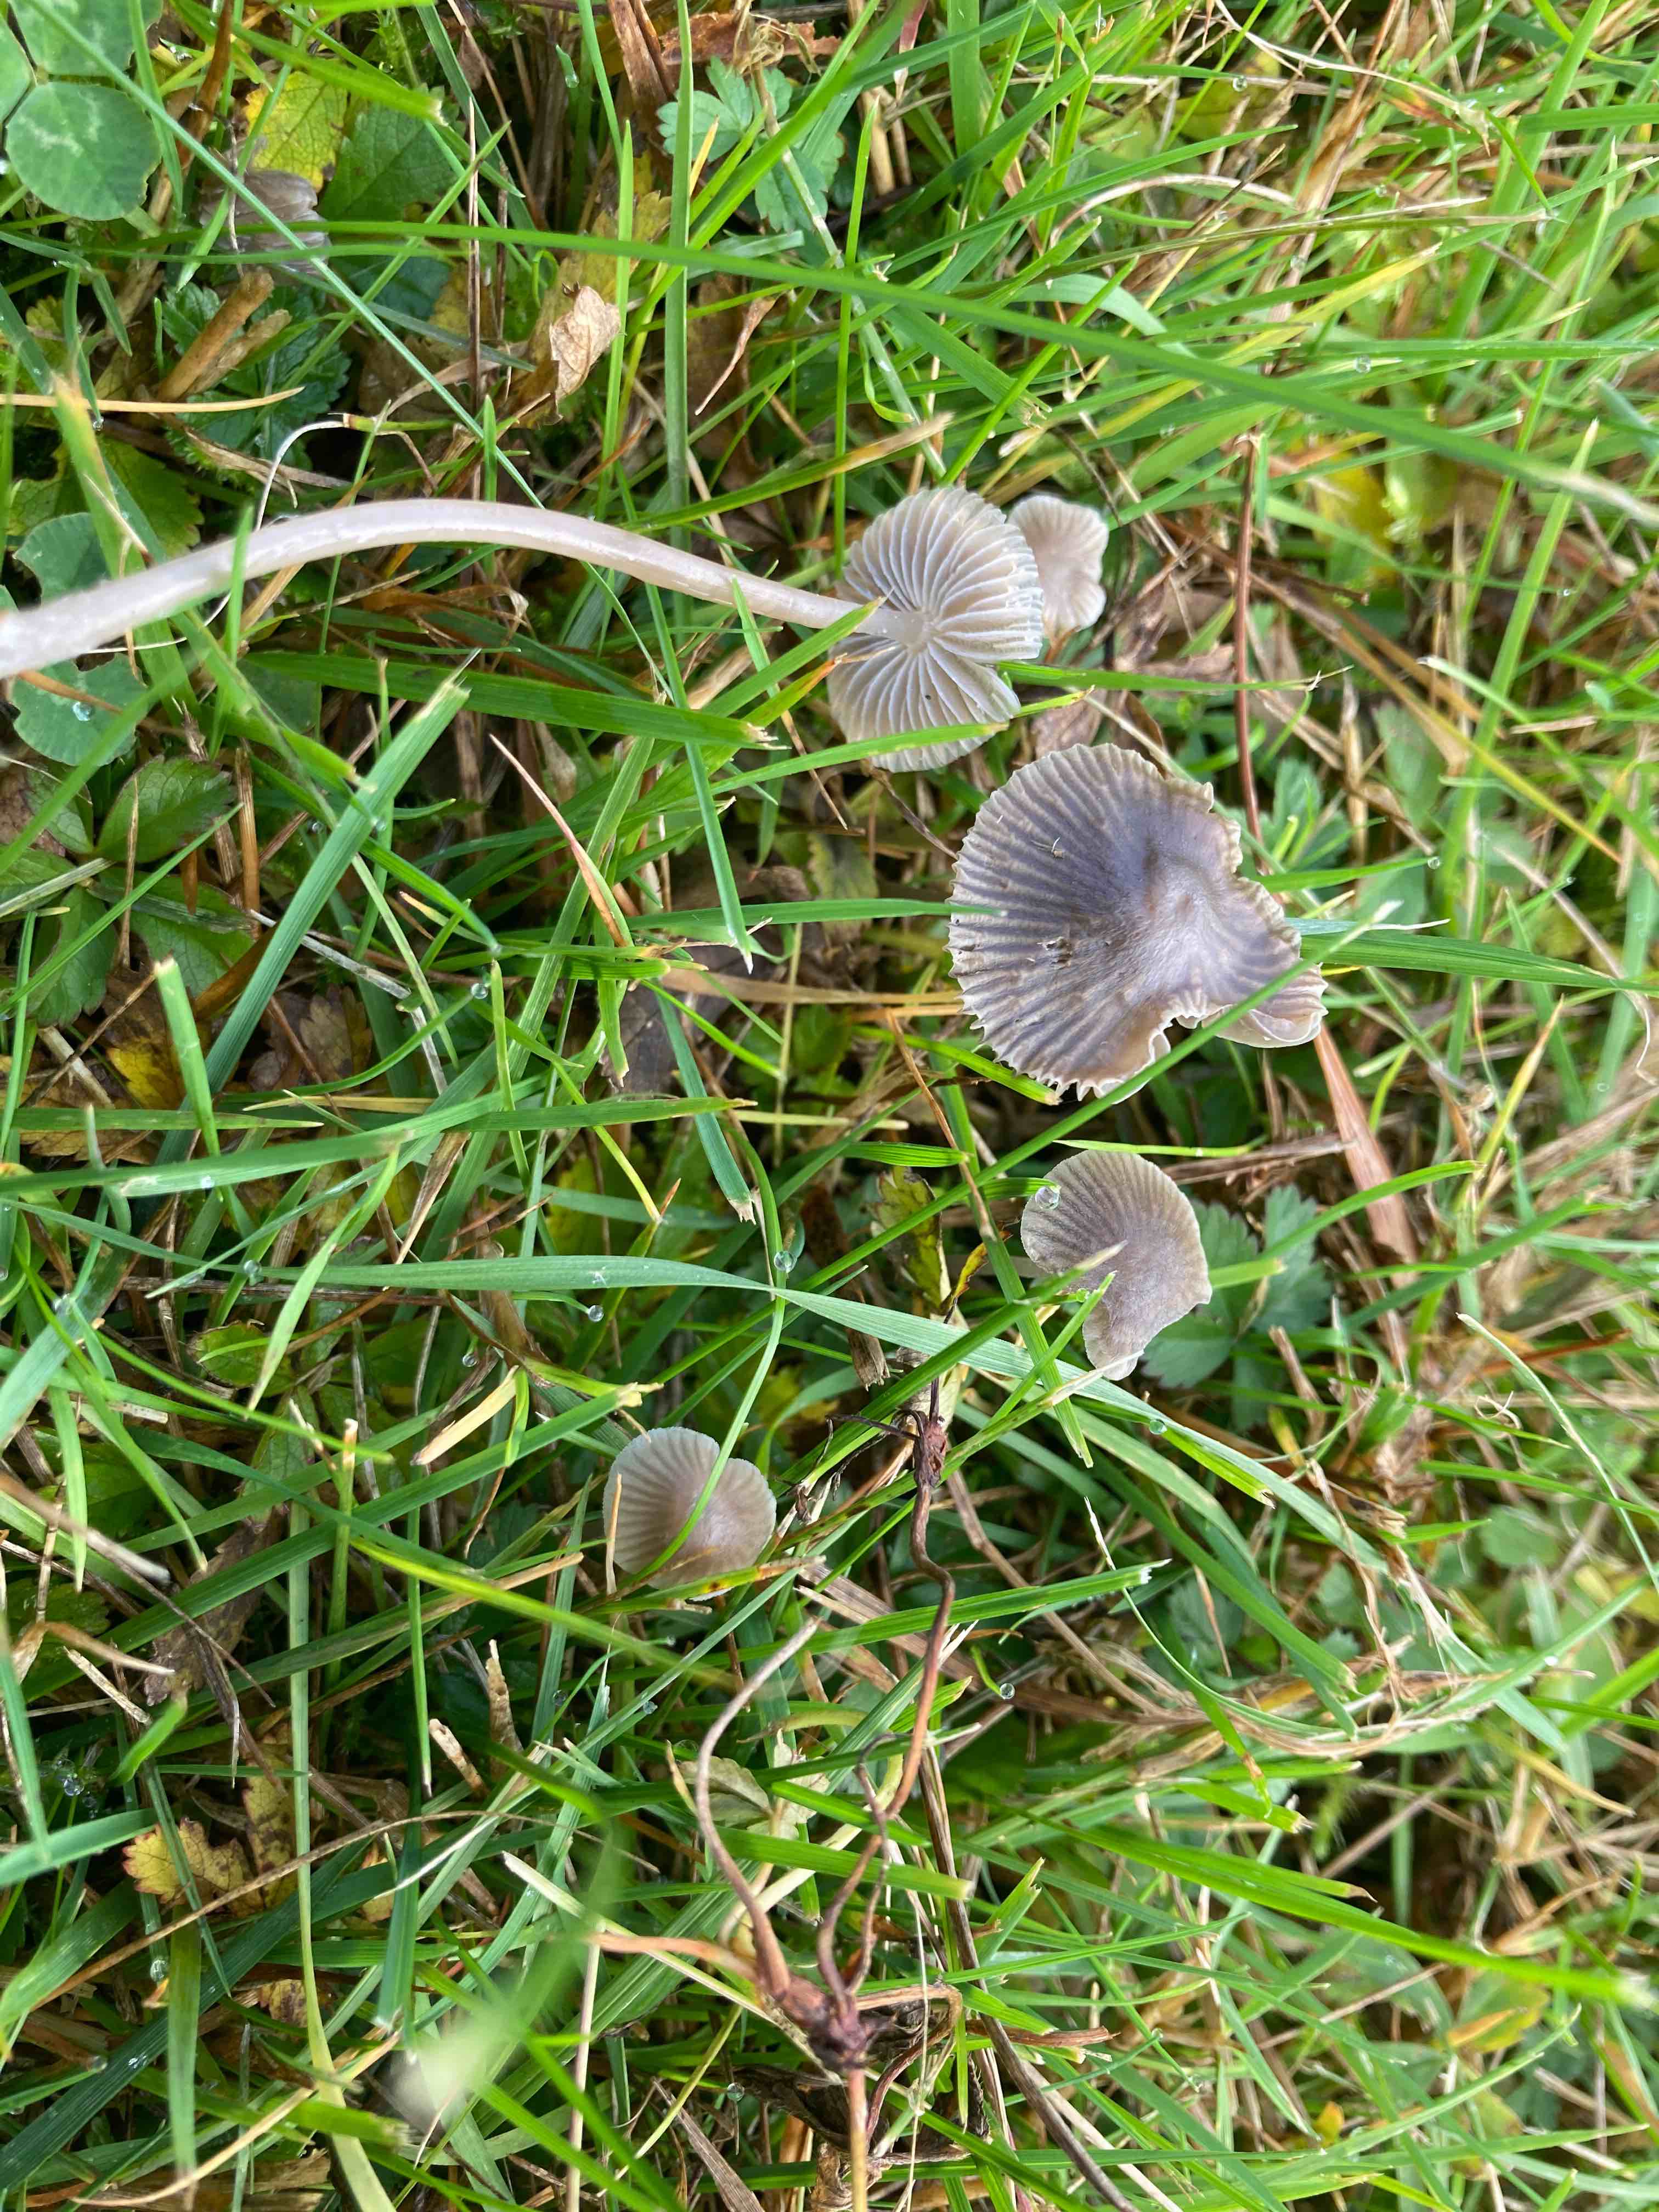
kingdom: Fungi
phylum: Basidiomycota
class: Agaricomycetes
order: Agaricales
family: Mycenaceae
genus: Mycena
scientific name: Mycena aetites
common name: plæne-huesvamp
